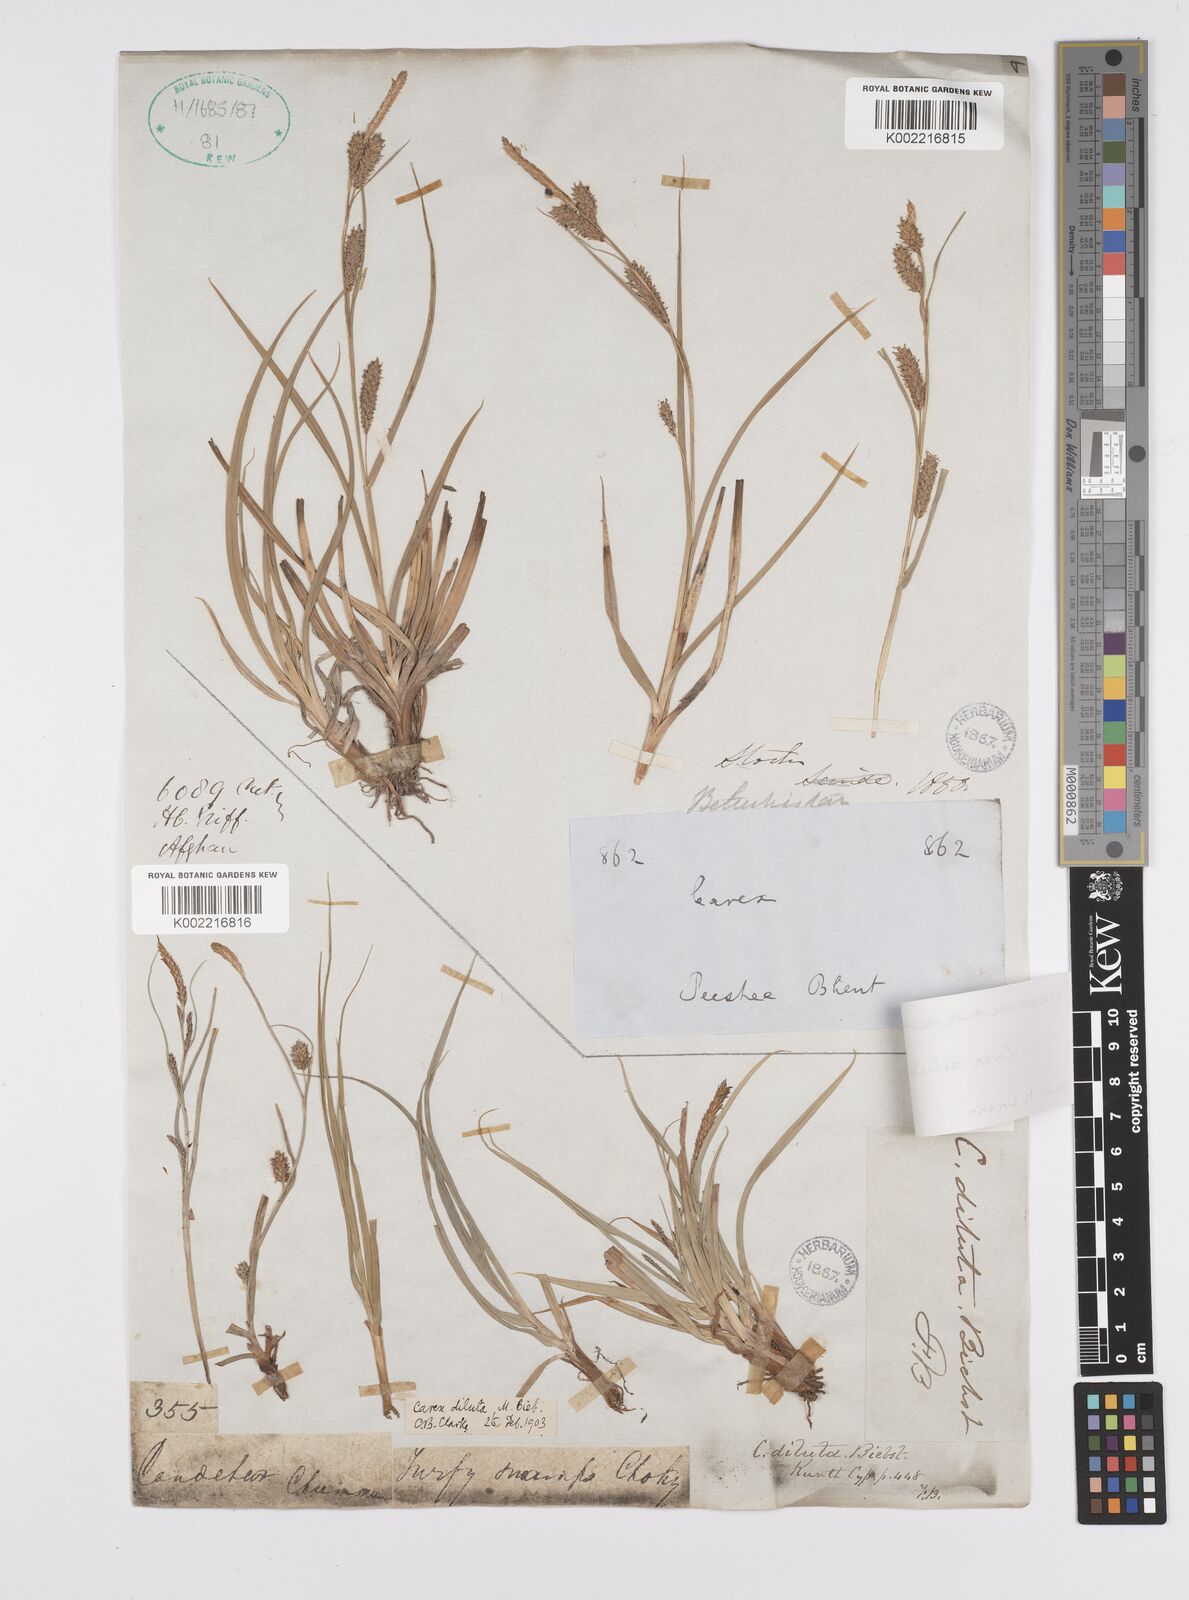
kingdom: Plantae
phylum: Tracheophyta
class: Liliopsida
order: Poales
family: Cyperaceae
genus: Carex
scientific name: Carex diluta
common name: Sedge
